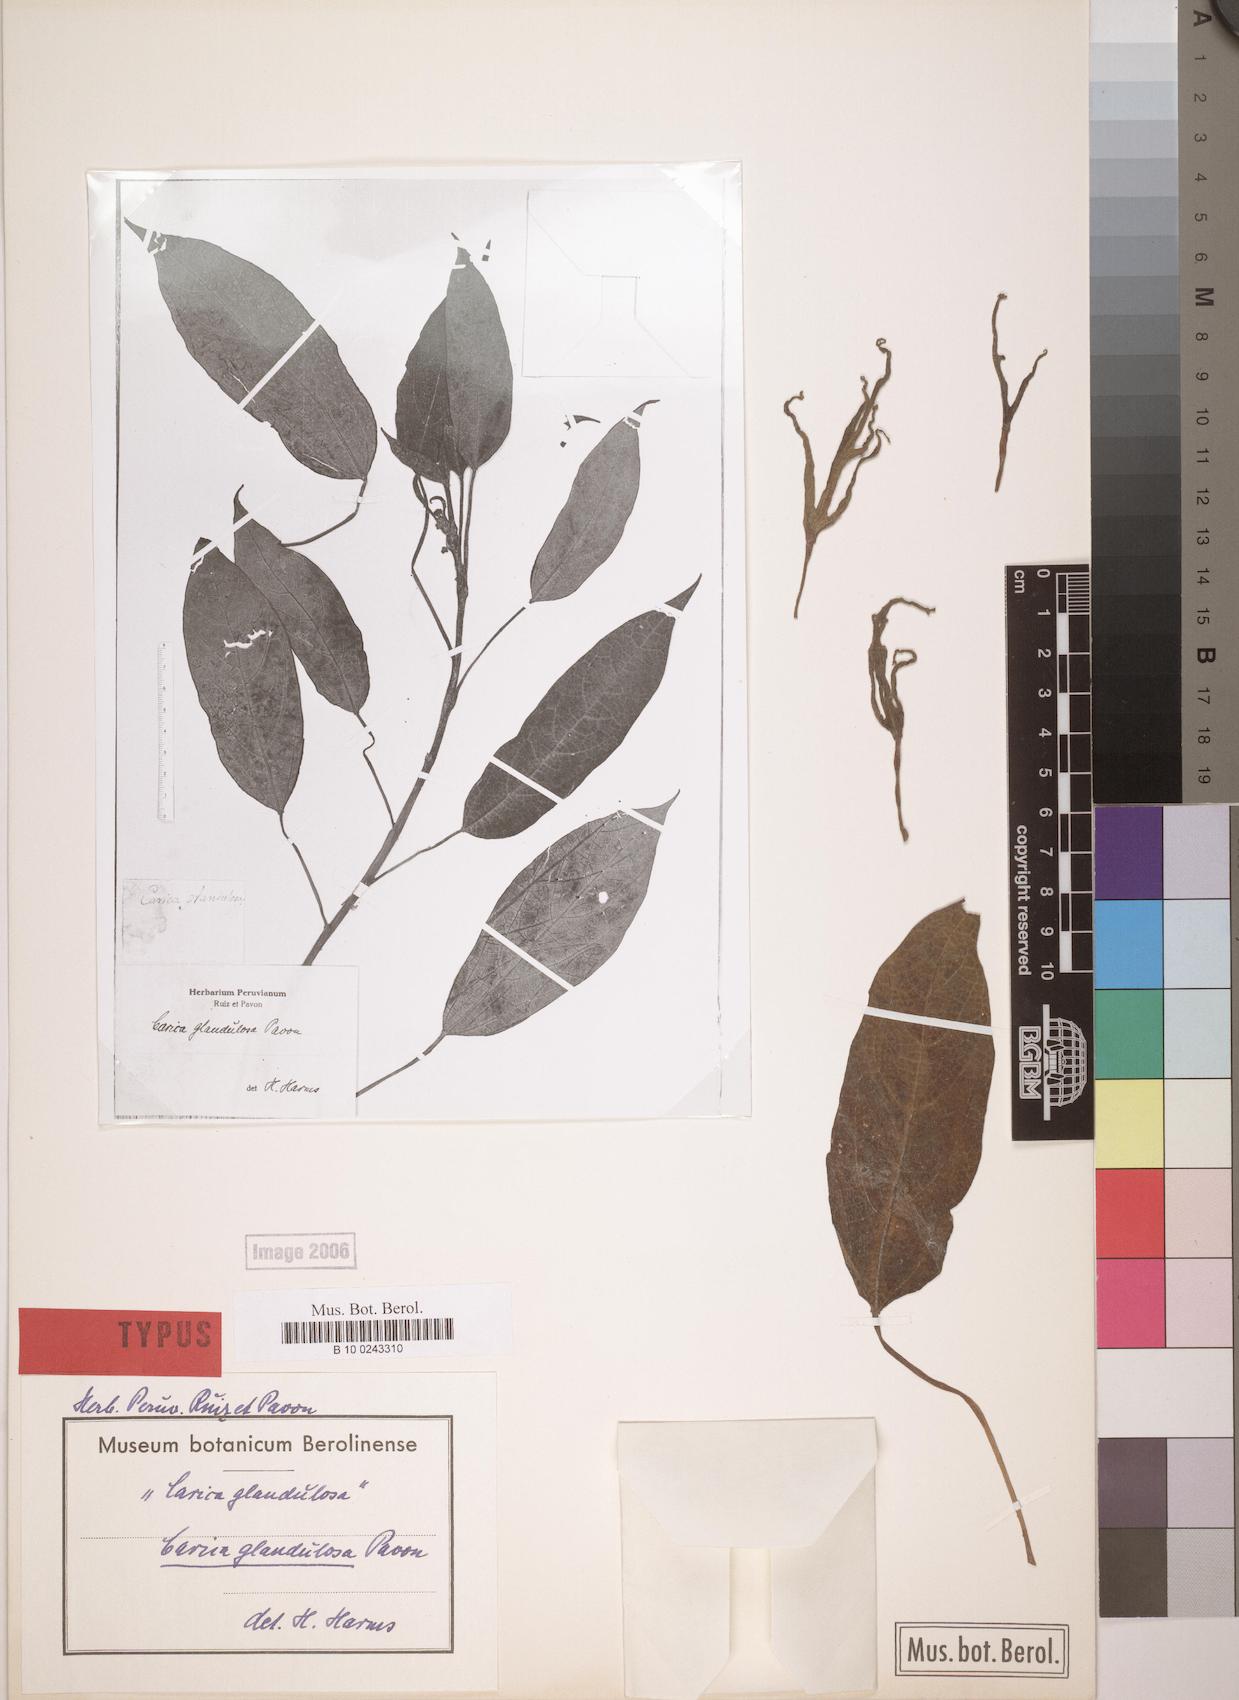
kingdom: Plantae
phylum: Tracheophyta
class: Magnoliopsida
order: Brassicales
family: Caricaceae
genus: Vasconcellea
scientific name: Vasconcellea glandulosa
